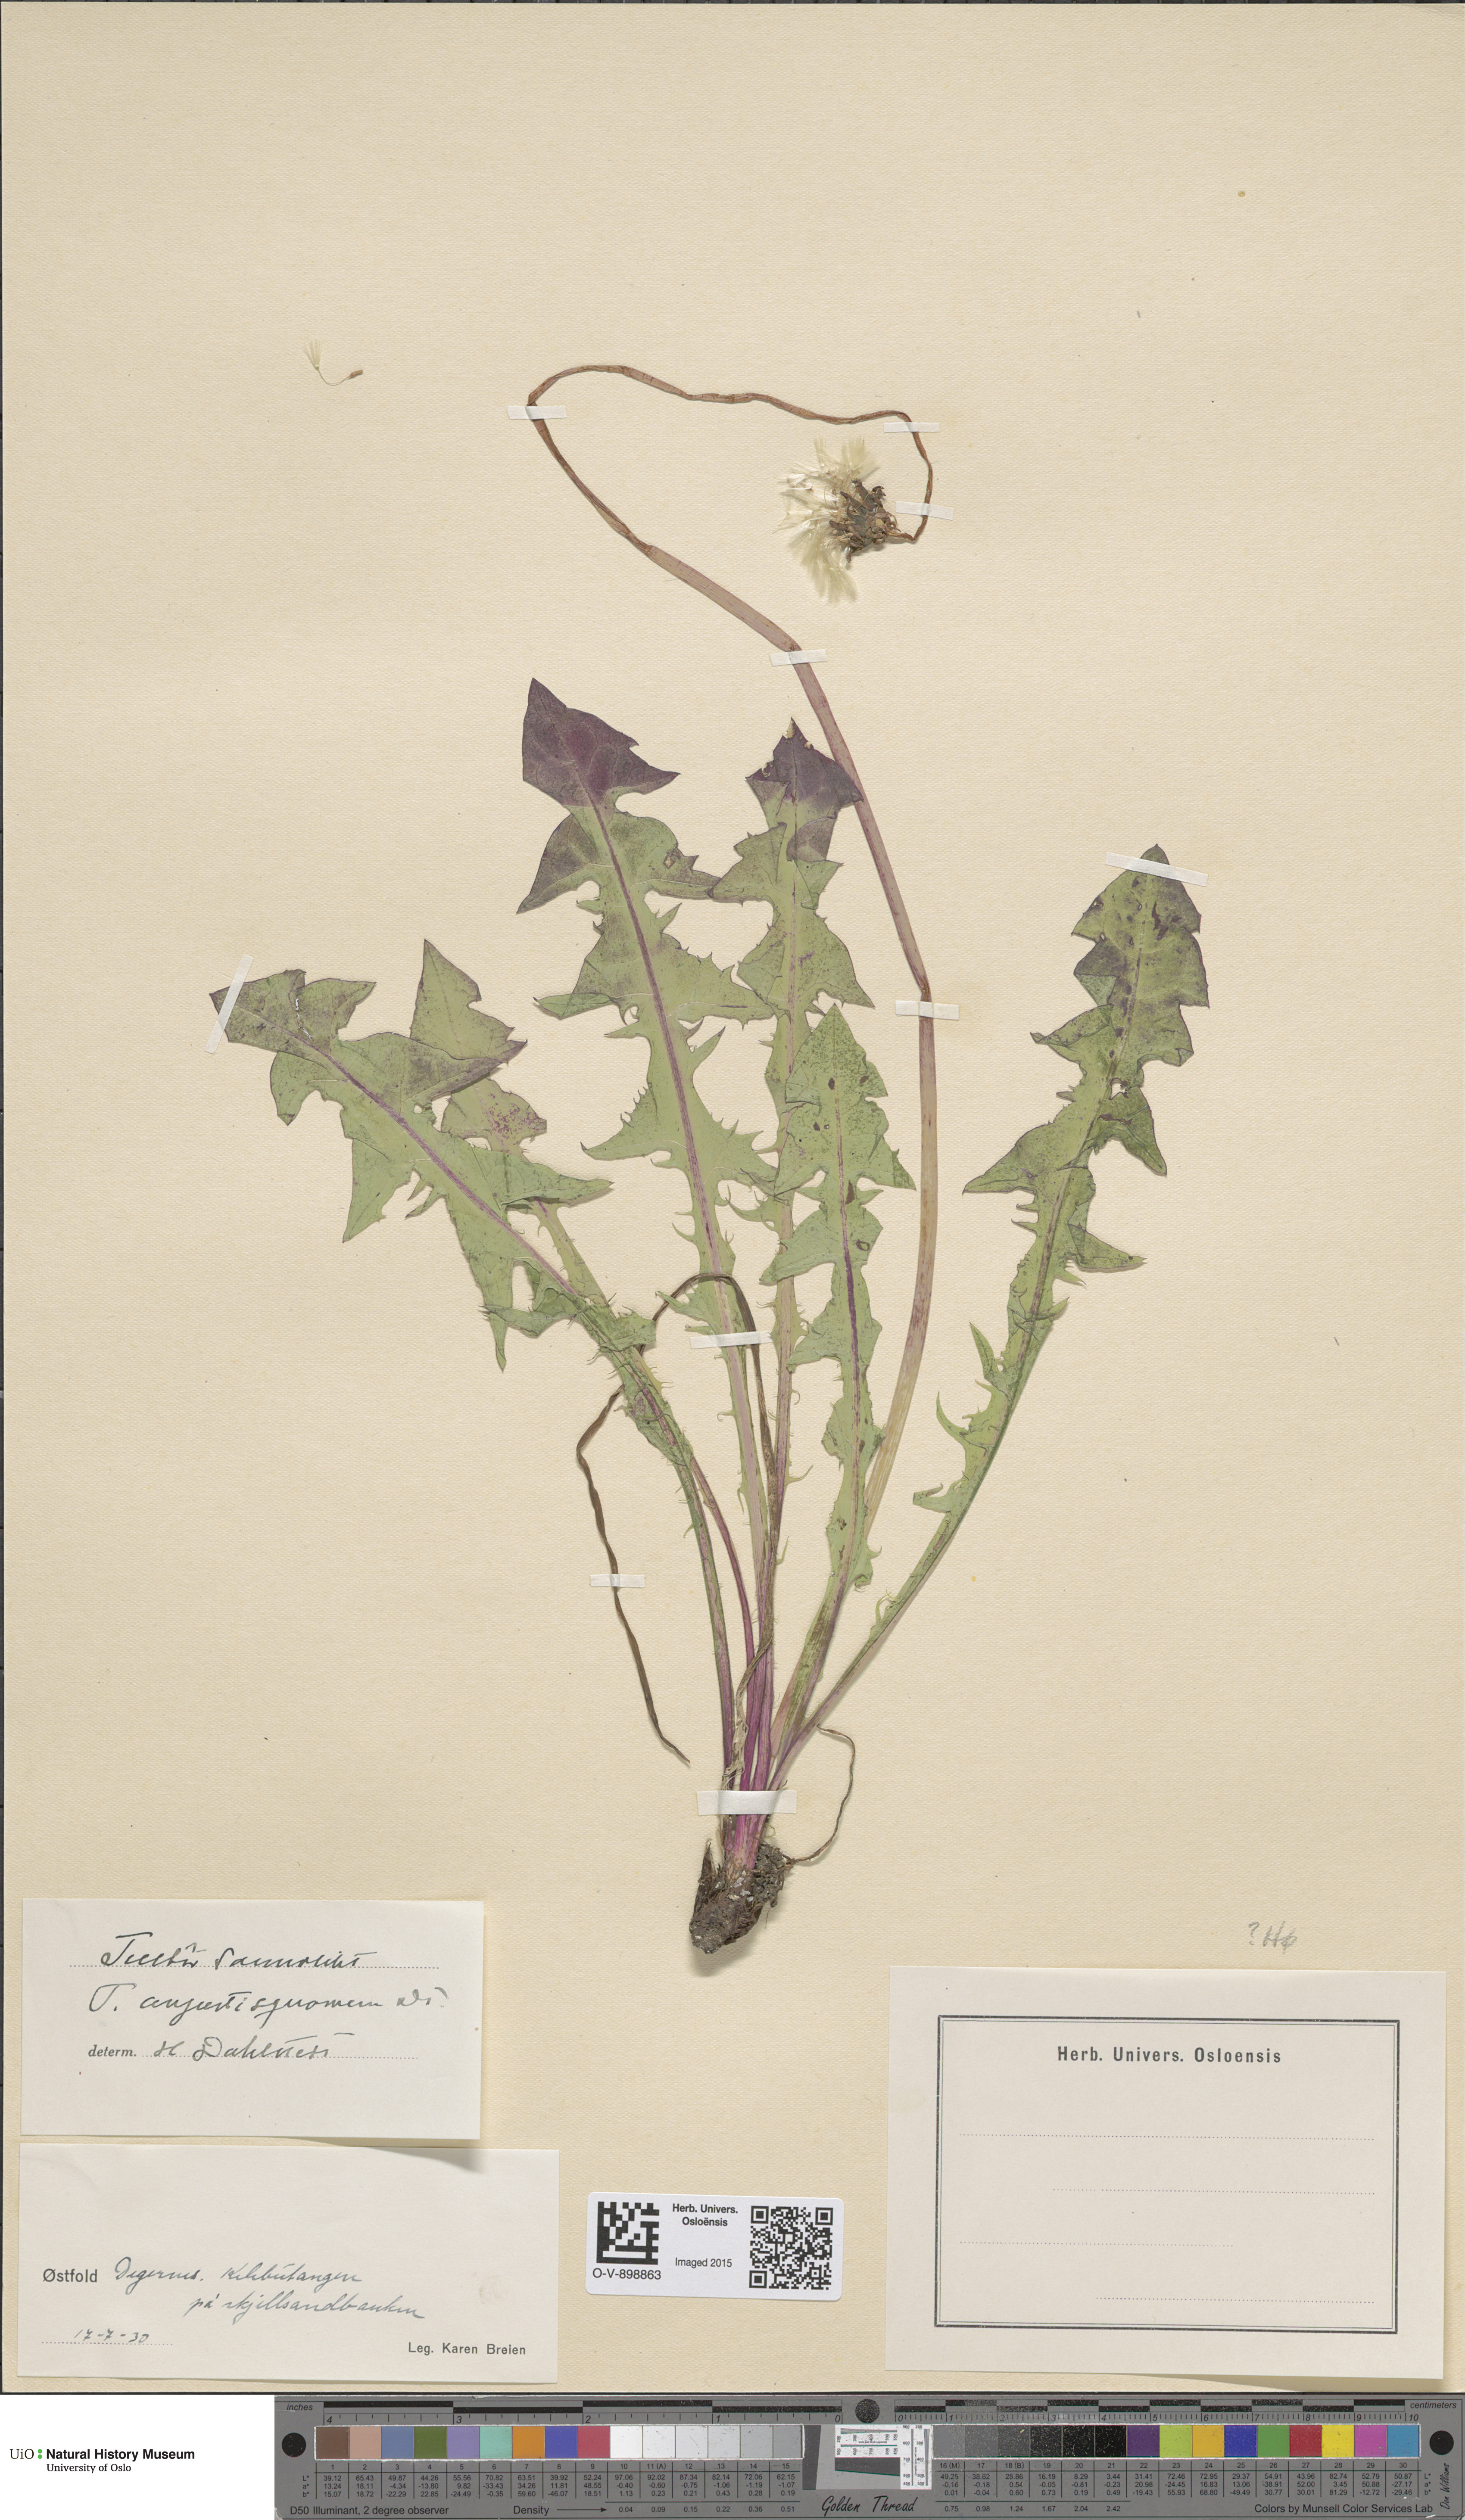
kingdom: Plantae
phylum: Tracheophyta
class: Magnoliopsida
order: Asterales
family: Asteraceae
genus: Taraxacum
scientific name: Taraxacum angustisquameum
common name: Multilobed dandelion
